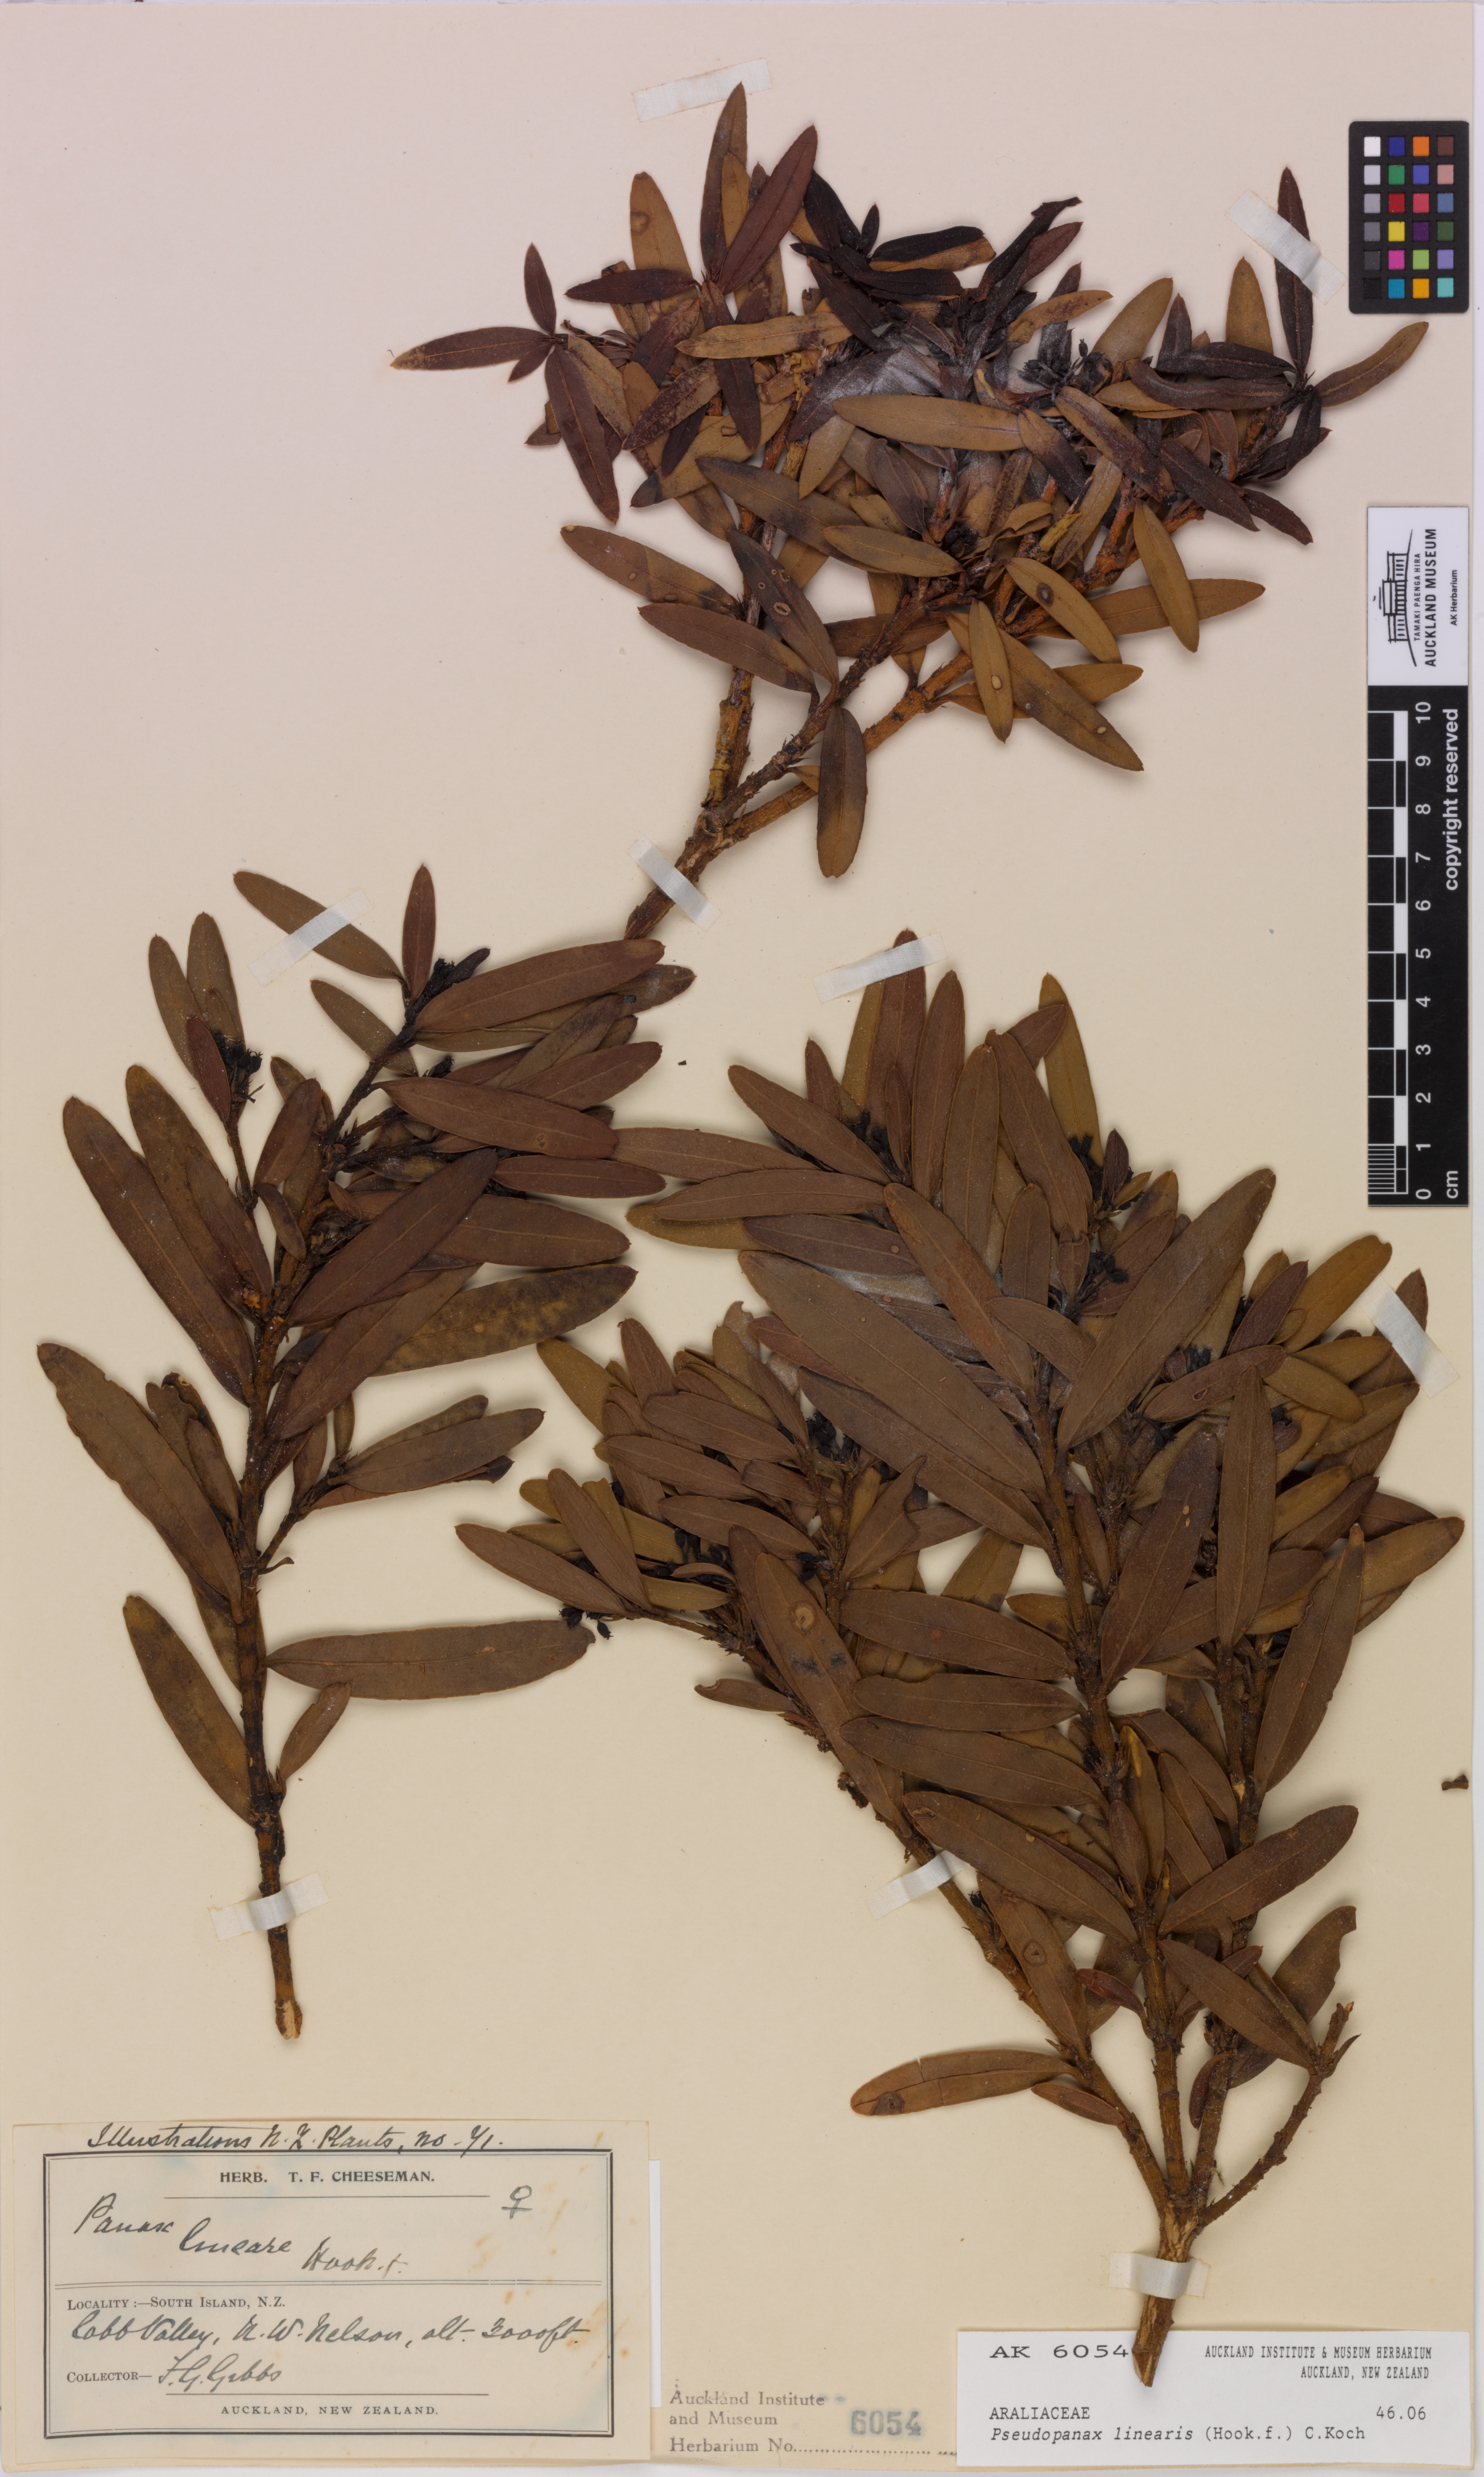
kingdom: Plantae
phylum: Tracheophyta
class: Magnoliopsida
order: Apiales
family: Araliaceae
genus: Pseudopanax
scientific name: Pseudopanax linearis
